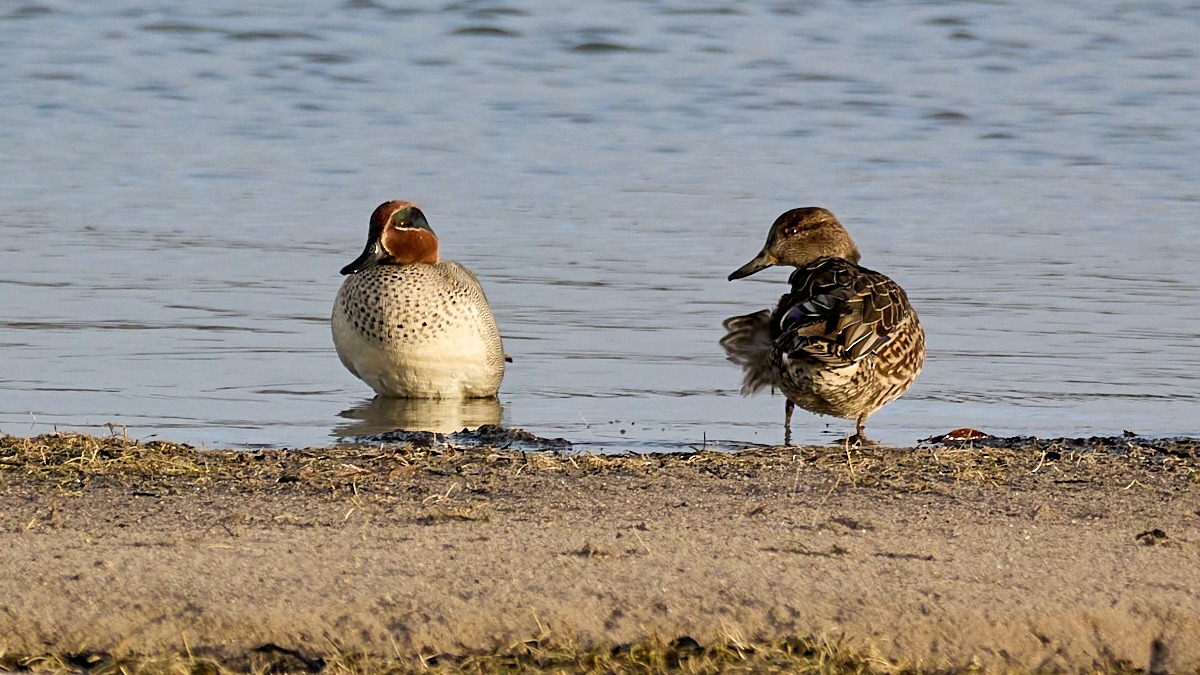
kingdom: Animalia
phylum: Chordata
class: Aves
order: Anseriformes
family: Anatidae
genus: Anas
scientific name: Anas crecca
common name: Krikand
